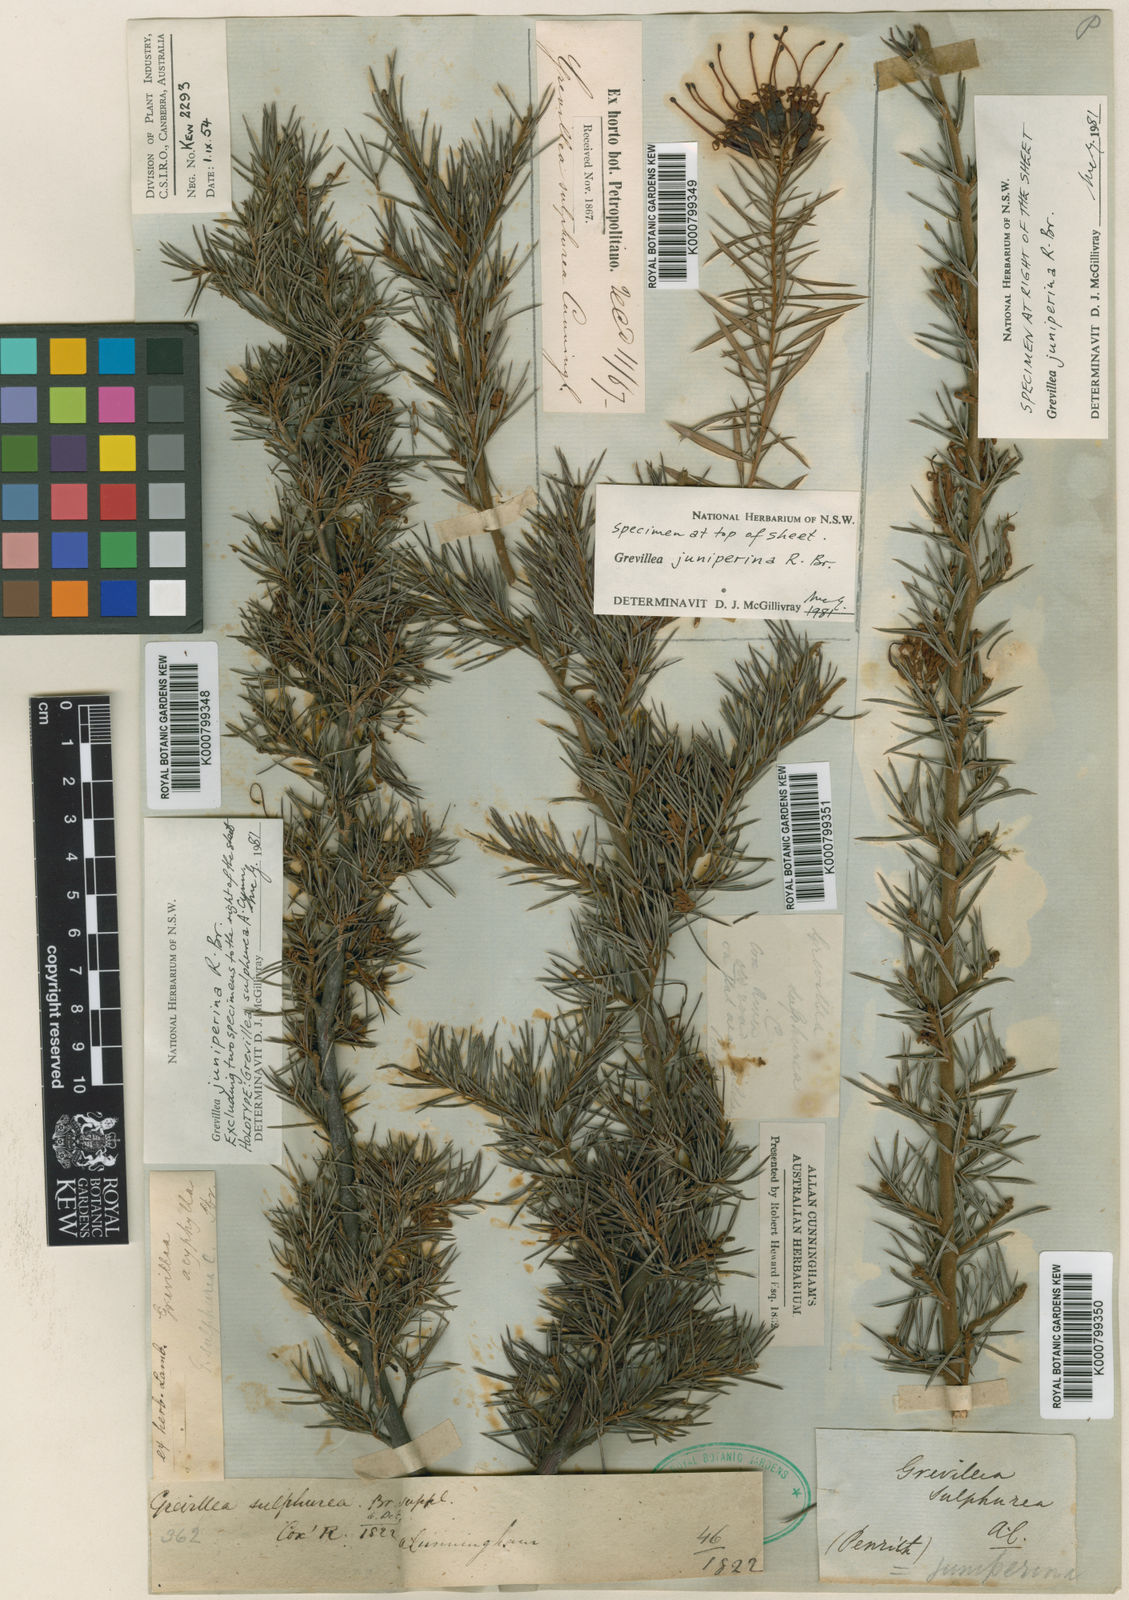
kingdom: Plantae
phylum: Tracheophyta
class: Magnoliopsida
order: Proteales
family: Proteaceae
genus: Grevillea
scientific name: Grevillea juniperina
